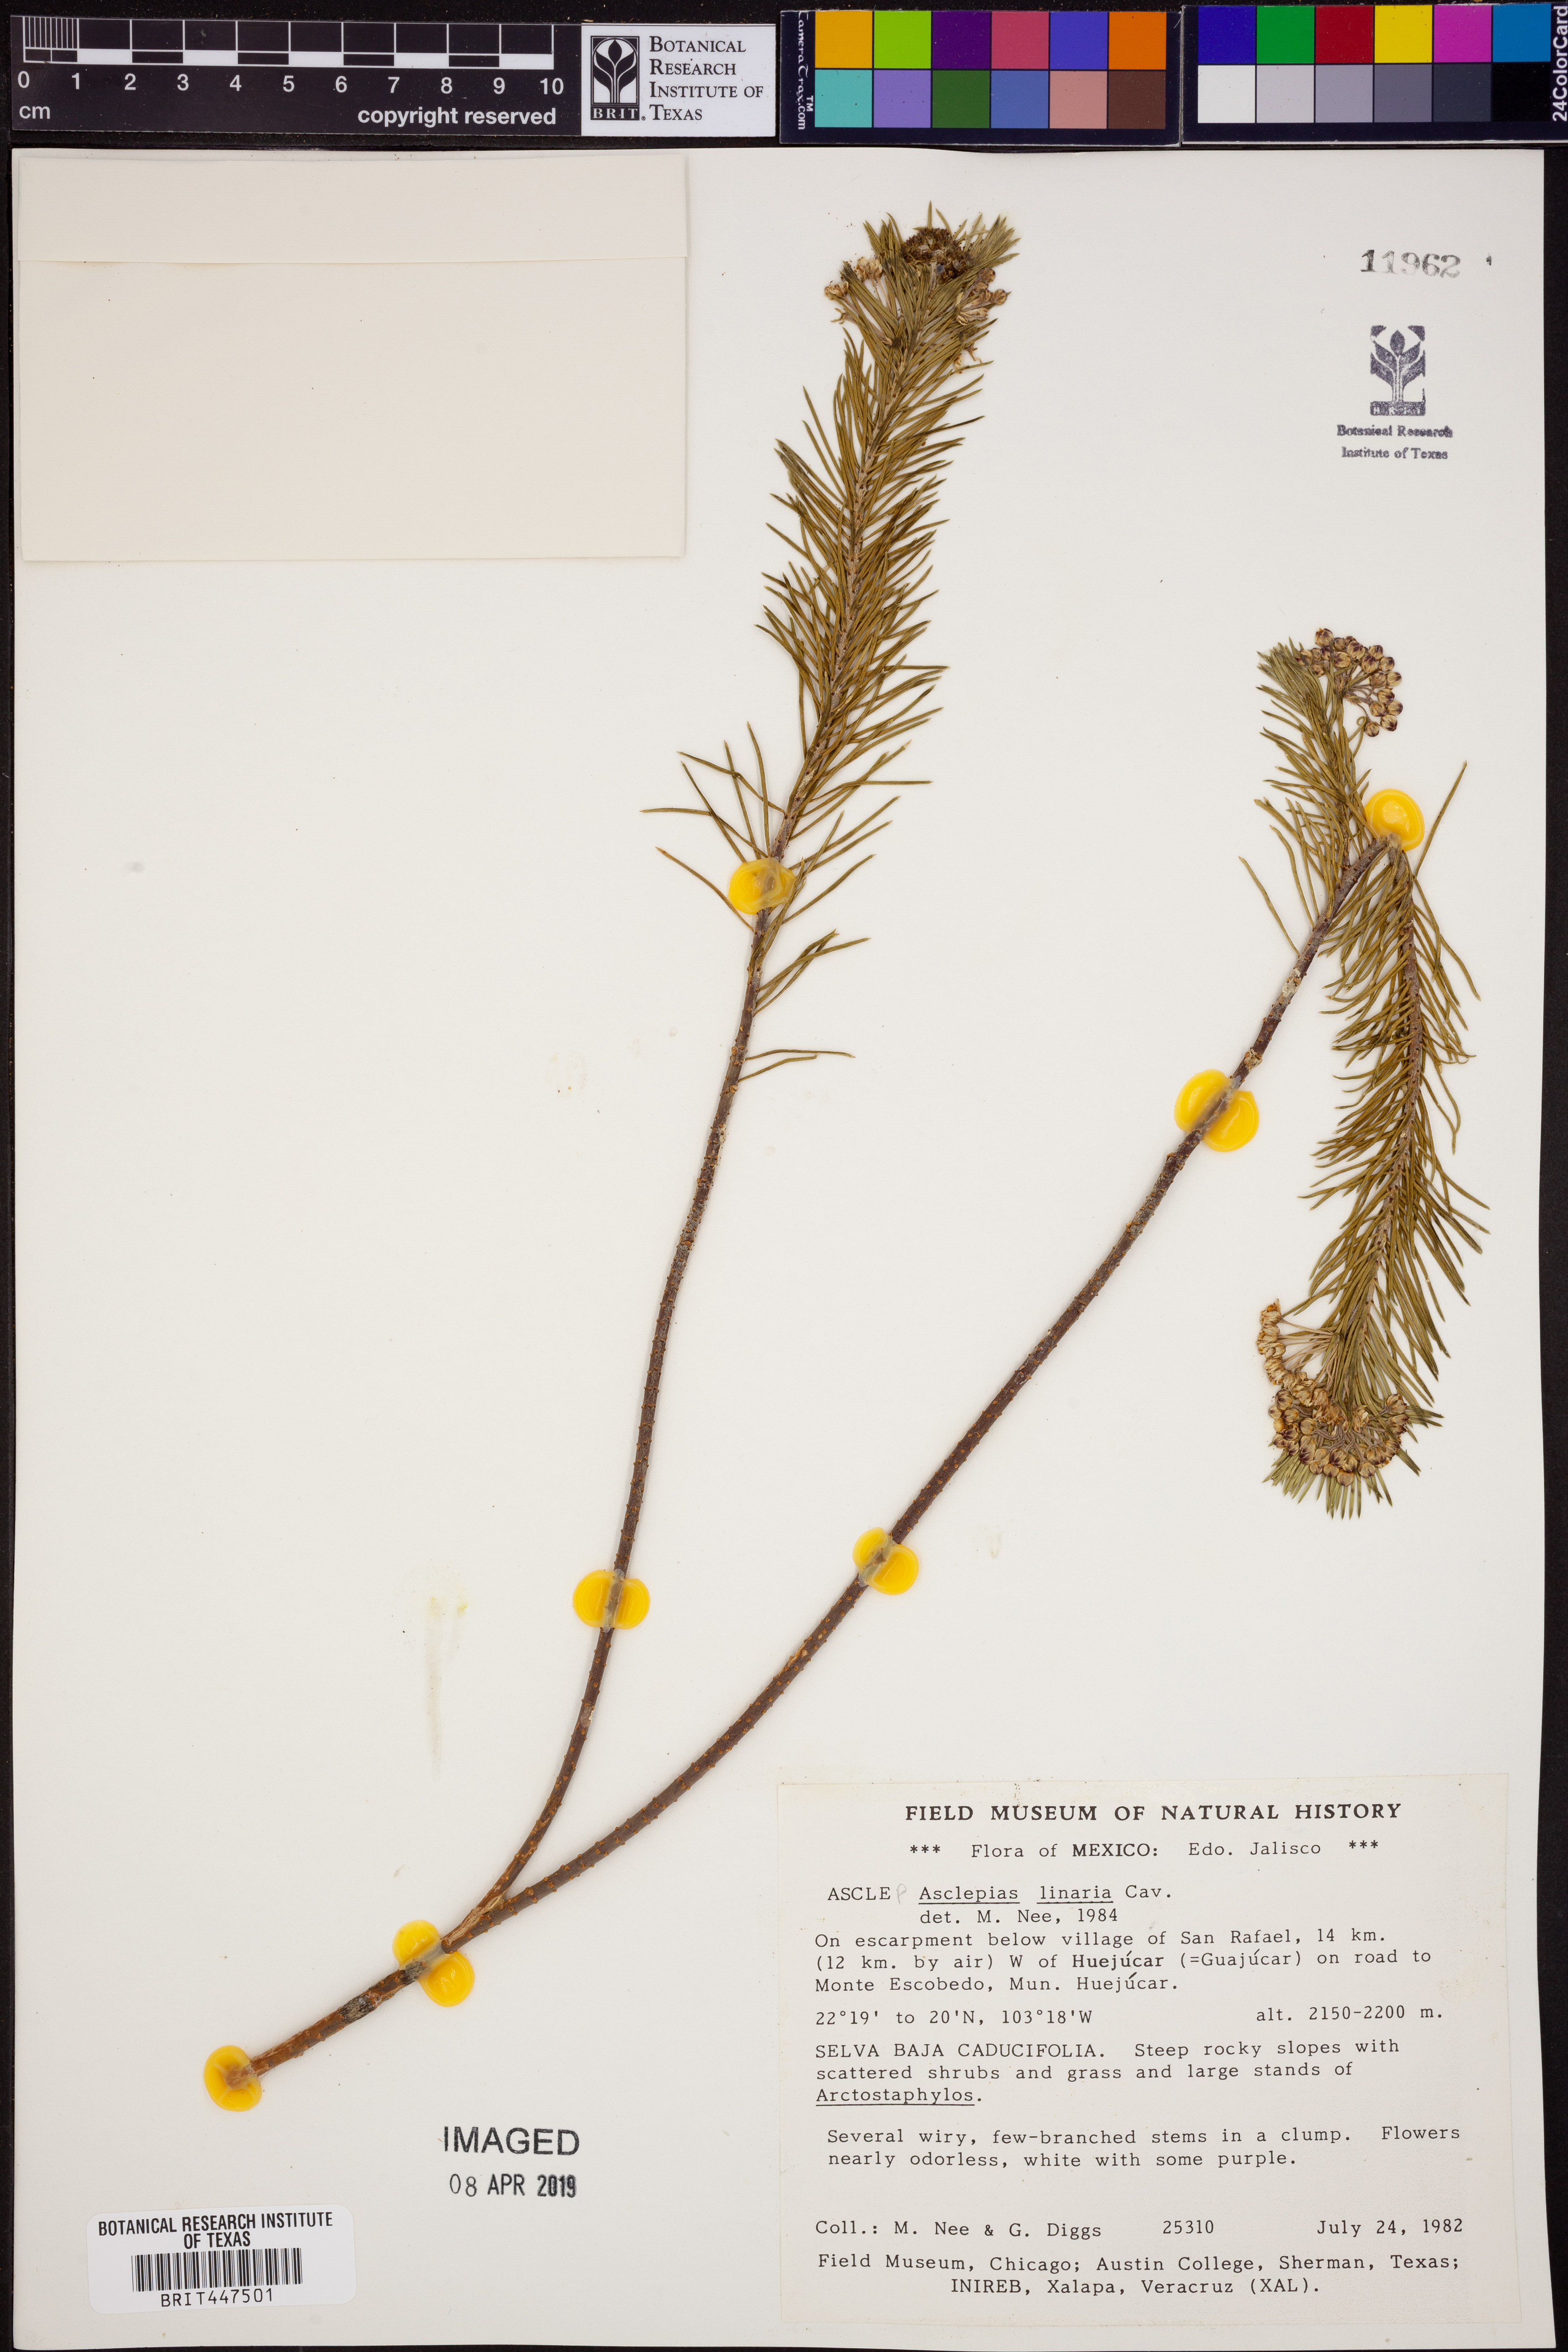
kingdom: Plantae
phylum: Tracheophyta
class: Magnoliopsida
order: Gentianales
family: Apocynaceae
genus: Asclepias
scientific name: Asclepias linaria
